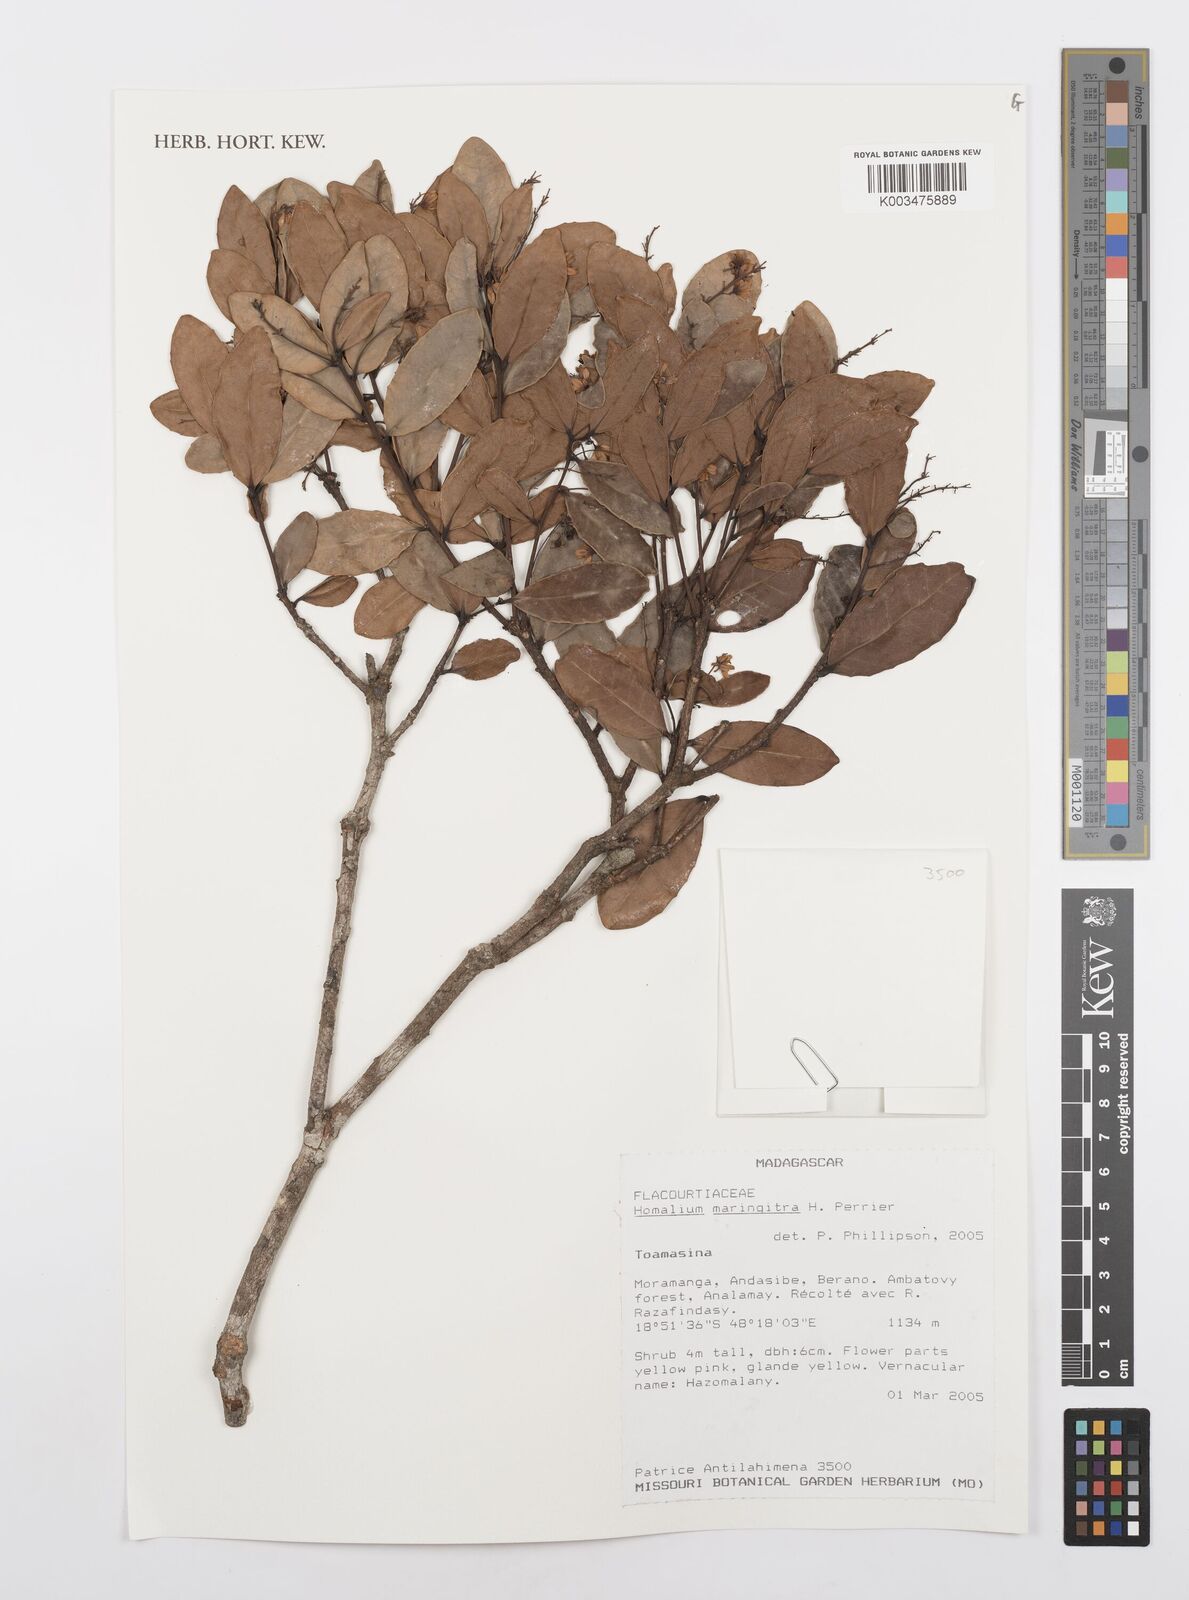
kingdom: Plantae
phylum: Tracheophyta
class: Magnoliopsida
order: Malpighiales
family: Salicaceae
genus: Homalium
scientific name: Homalium maringitra
